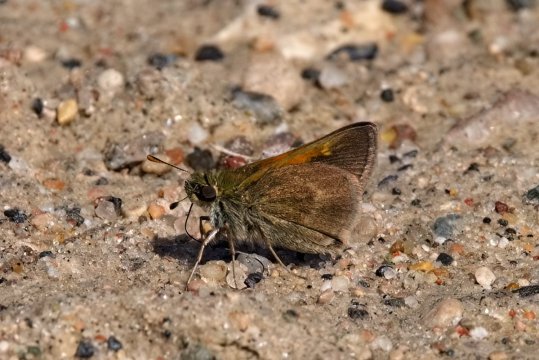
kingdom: Animalia
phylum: Arthropoda
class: Insecta
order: Lepidoptera
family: Hesperiidae
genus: Polites
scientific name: Polites themistocles
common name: Tawny-edged Skipper
